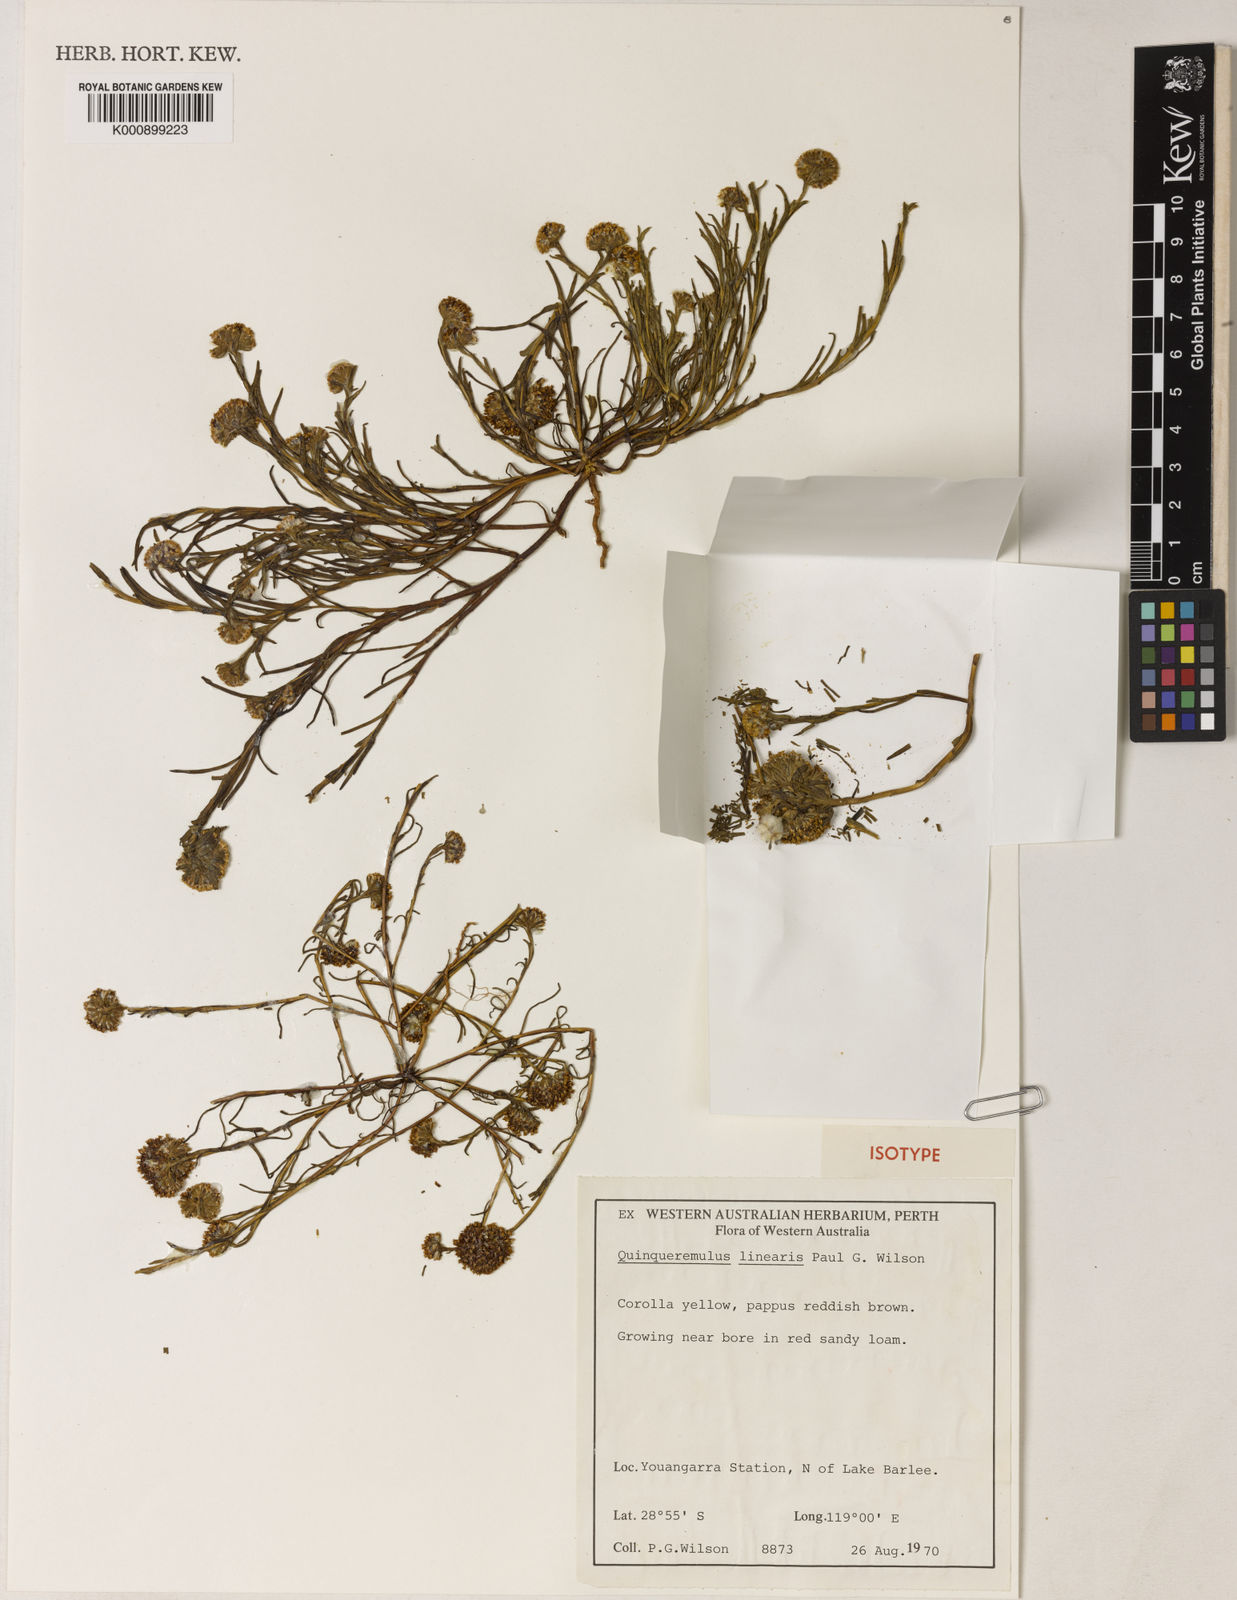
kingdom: Plantae
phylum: Tracheophyta
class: Magnoliopsida
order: Asterales
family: Asteraceae
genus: Quinqueremulus
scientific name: Quinqueremulus linearis
